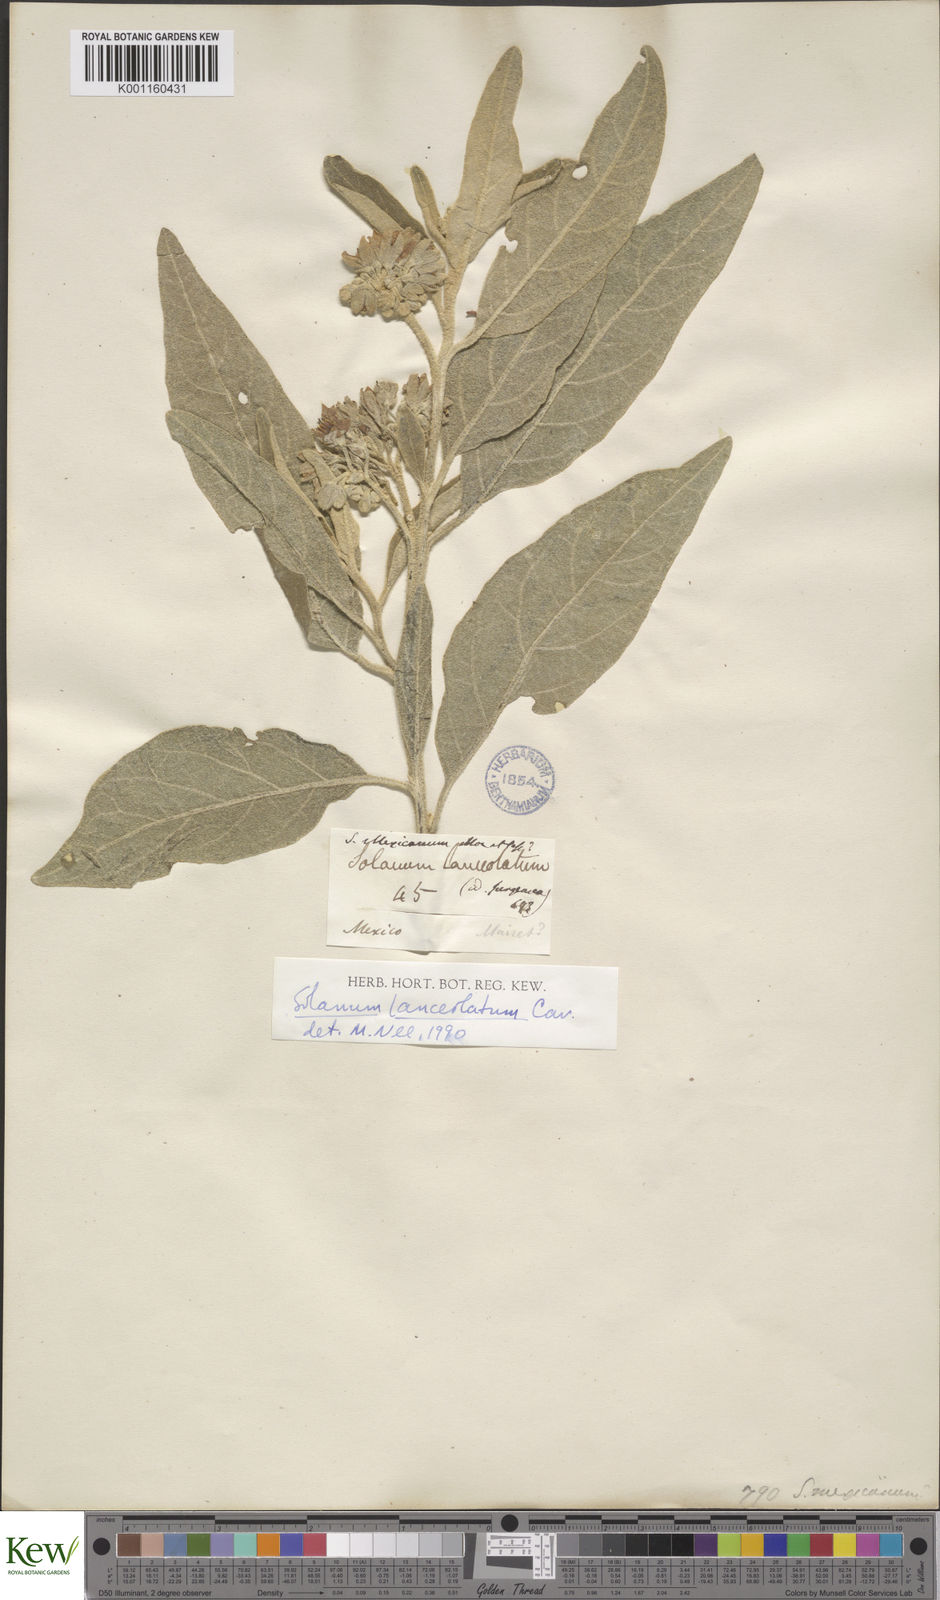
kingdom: Plantae
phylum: Tracheophyta
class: Magnoliopsida
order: Solanales
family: Solanaceae
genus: Solanum
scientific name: Solanum lanceolatum
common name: Orangeberry nightshade
